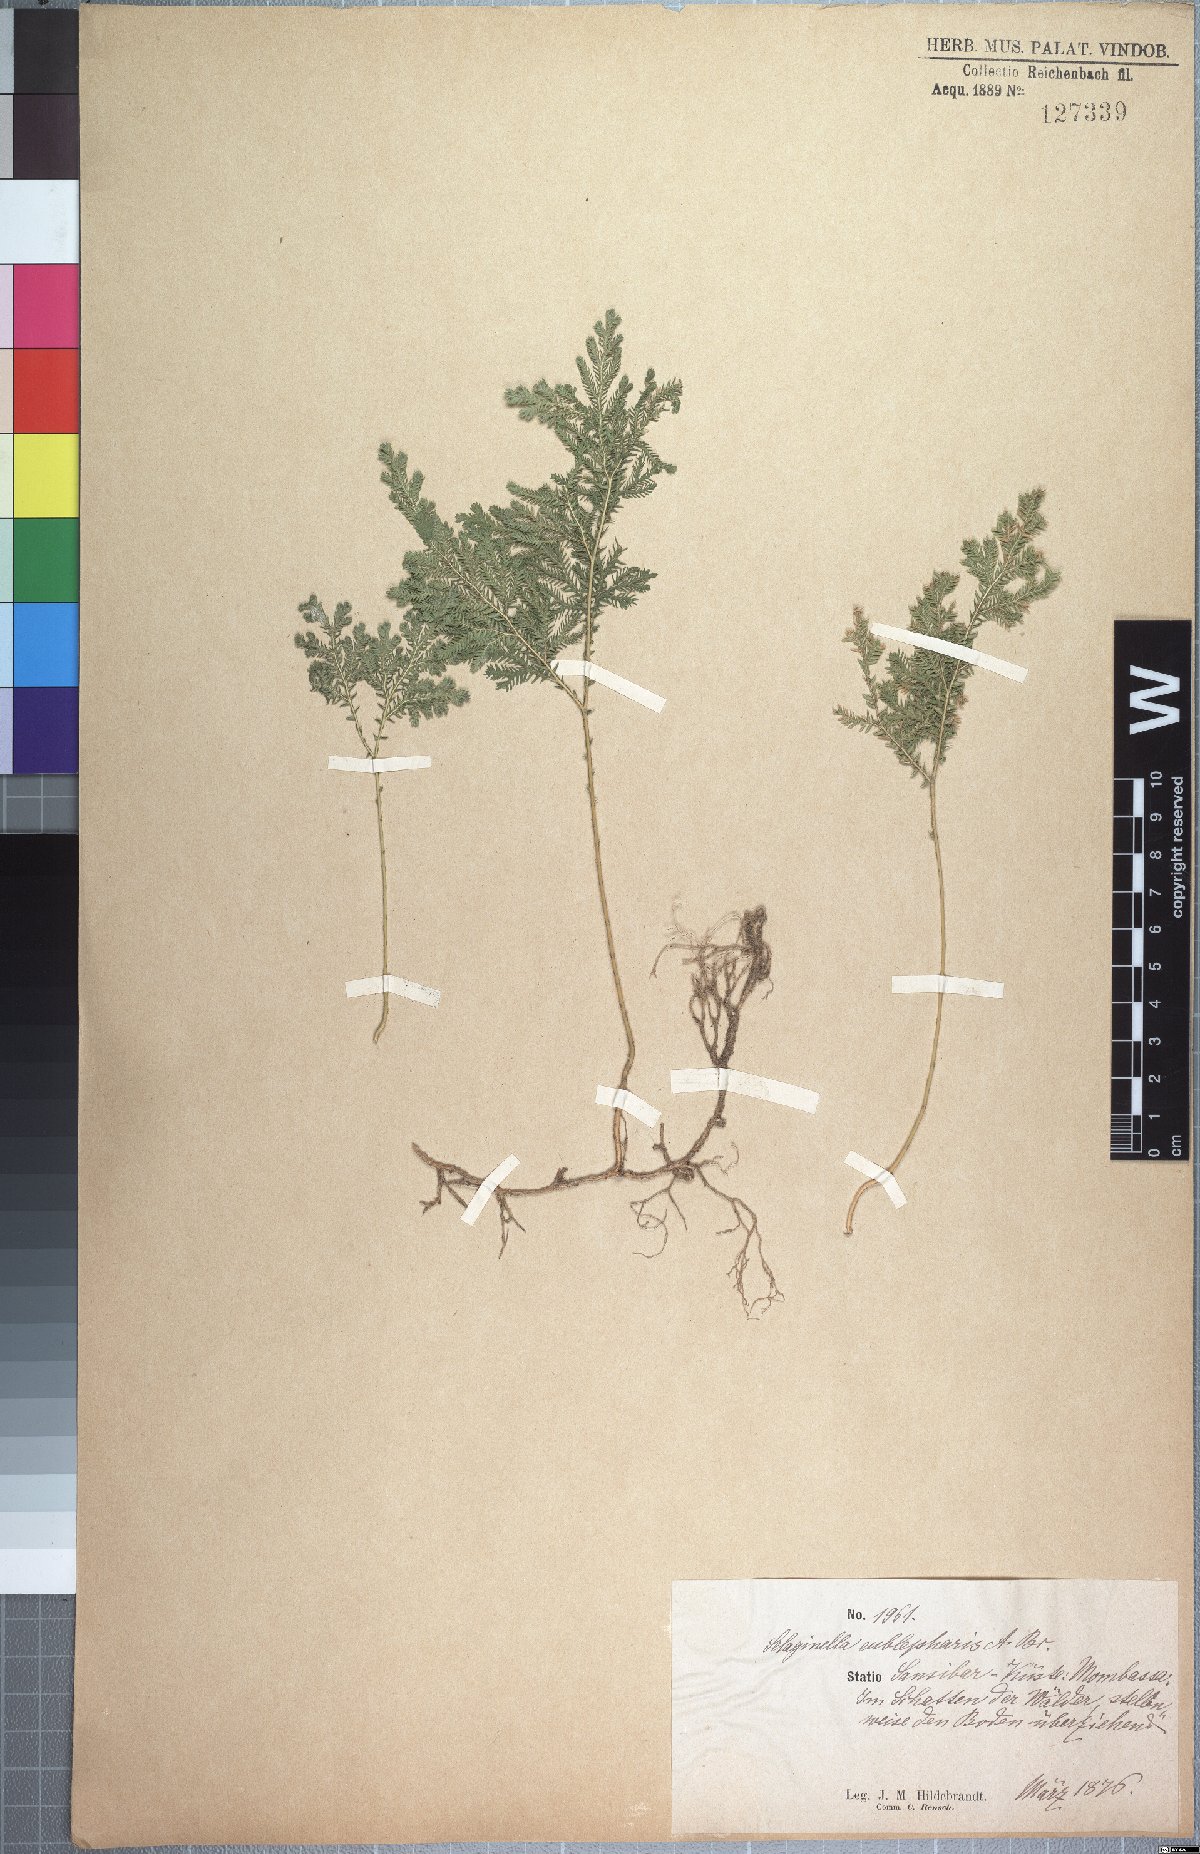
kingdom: Plantae
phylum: Tracheophyta
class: Lycopodiopsida
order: Selaginellales
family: Selaginellaceae
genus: Selaginella
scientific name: Selaginella eublepharis
